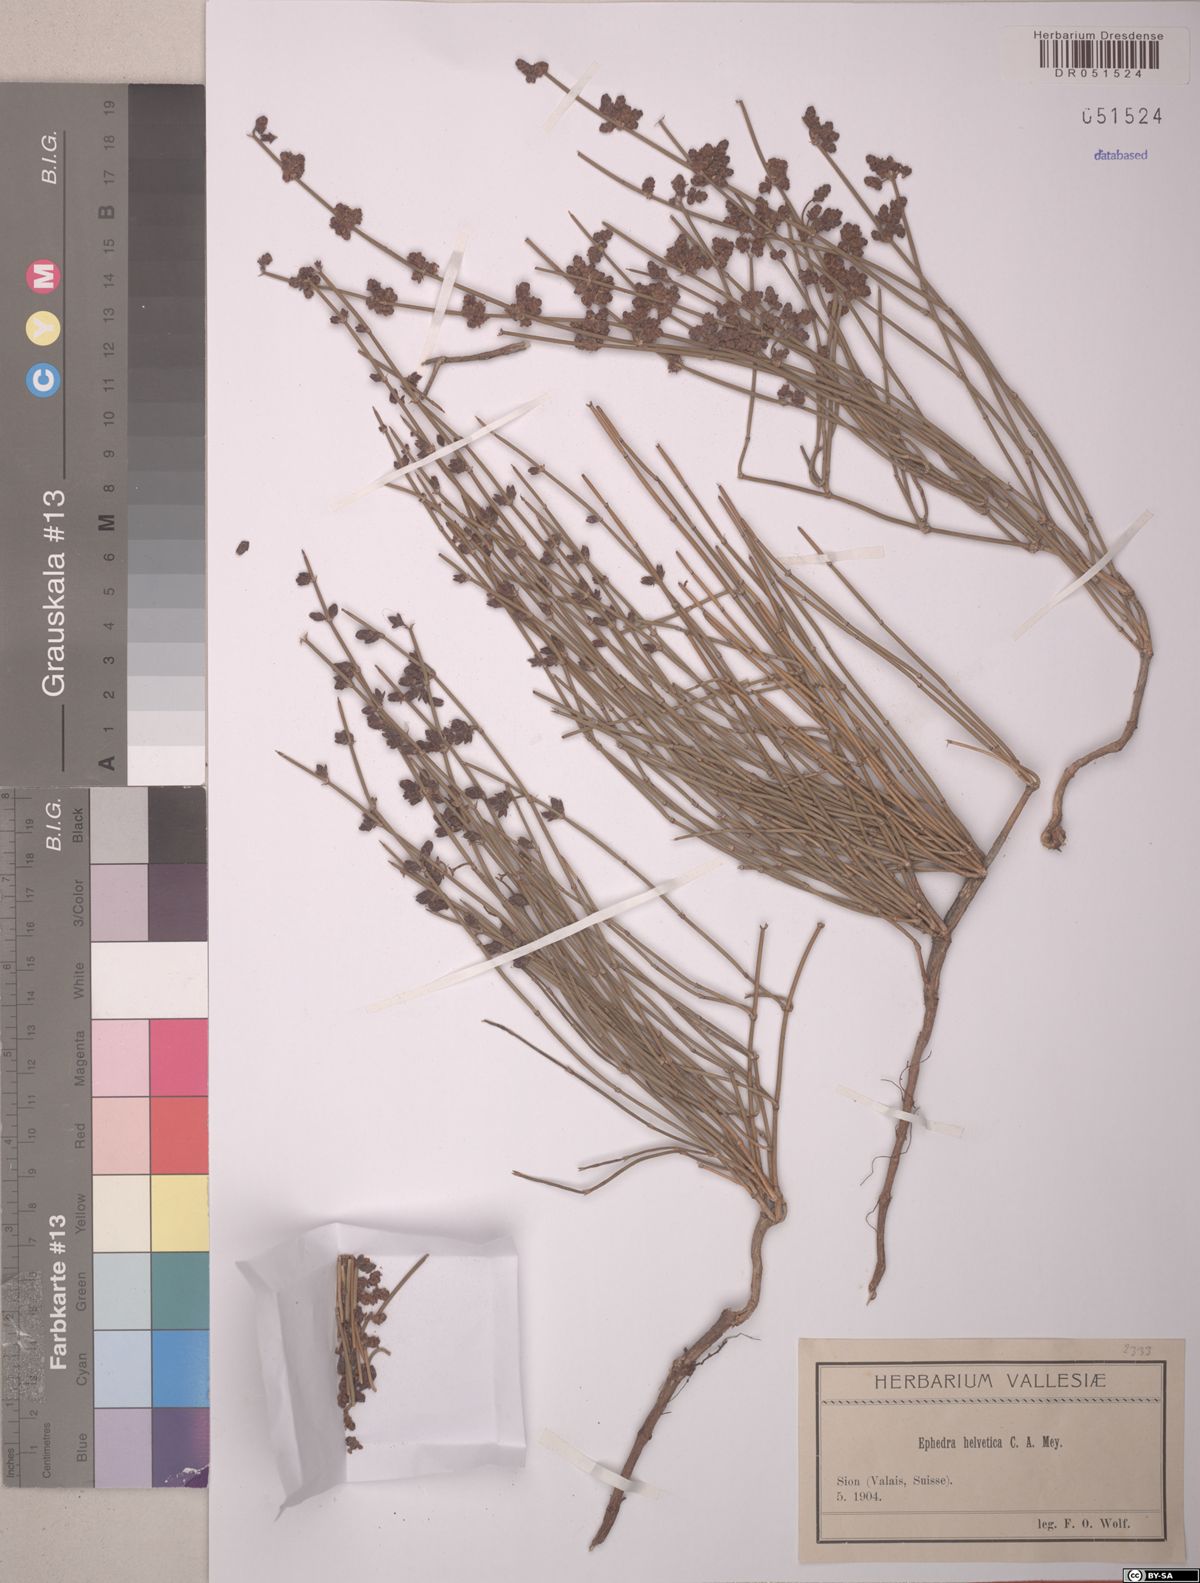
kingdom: Plantae
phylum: Tracheophyta
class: Gnetopsida
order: Ephedrales
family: Ephedraceae
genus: Ephedra
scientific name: Ephedra distachya
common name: Sea grape
